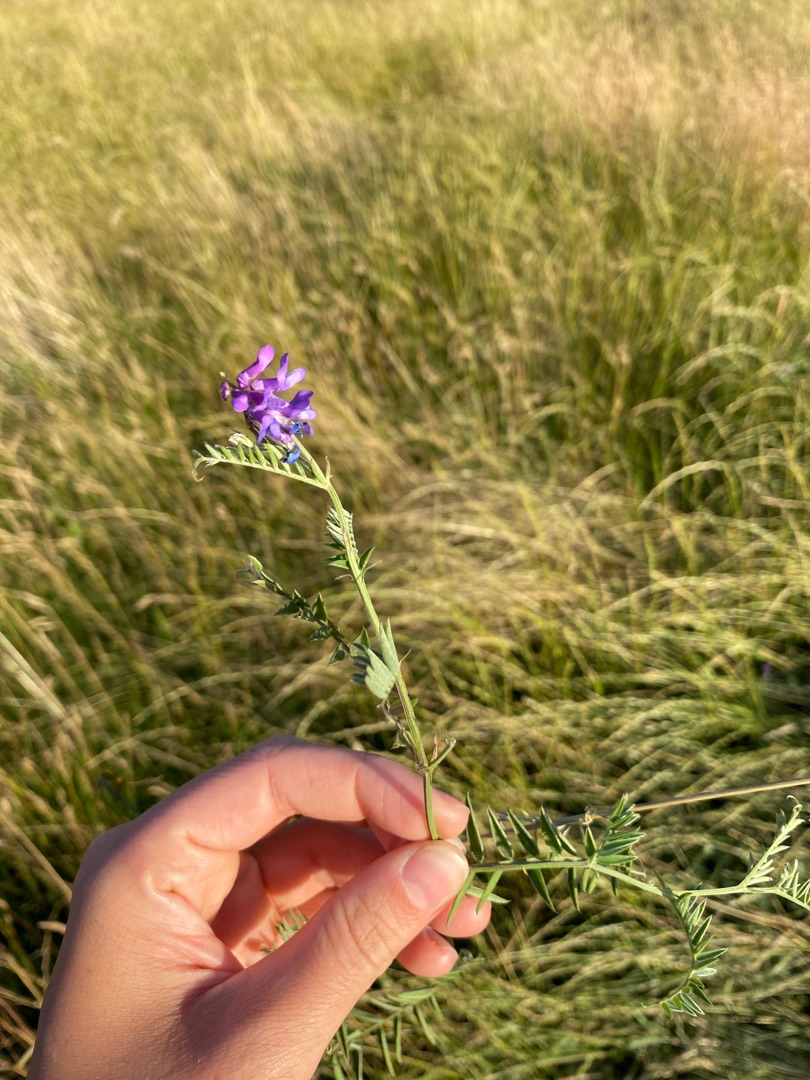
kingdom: Plantae
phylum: Tracheophyta
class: Magnoliopsida
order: Fabales
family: Fabaceae
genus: Vicia
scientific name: Vicia cracca
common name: Muse-vikke
